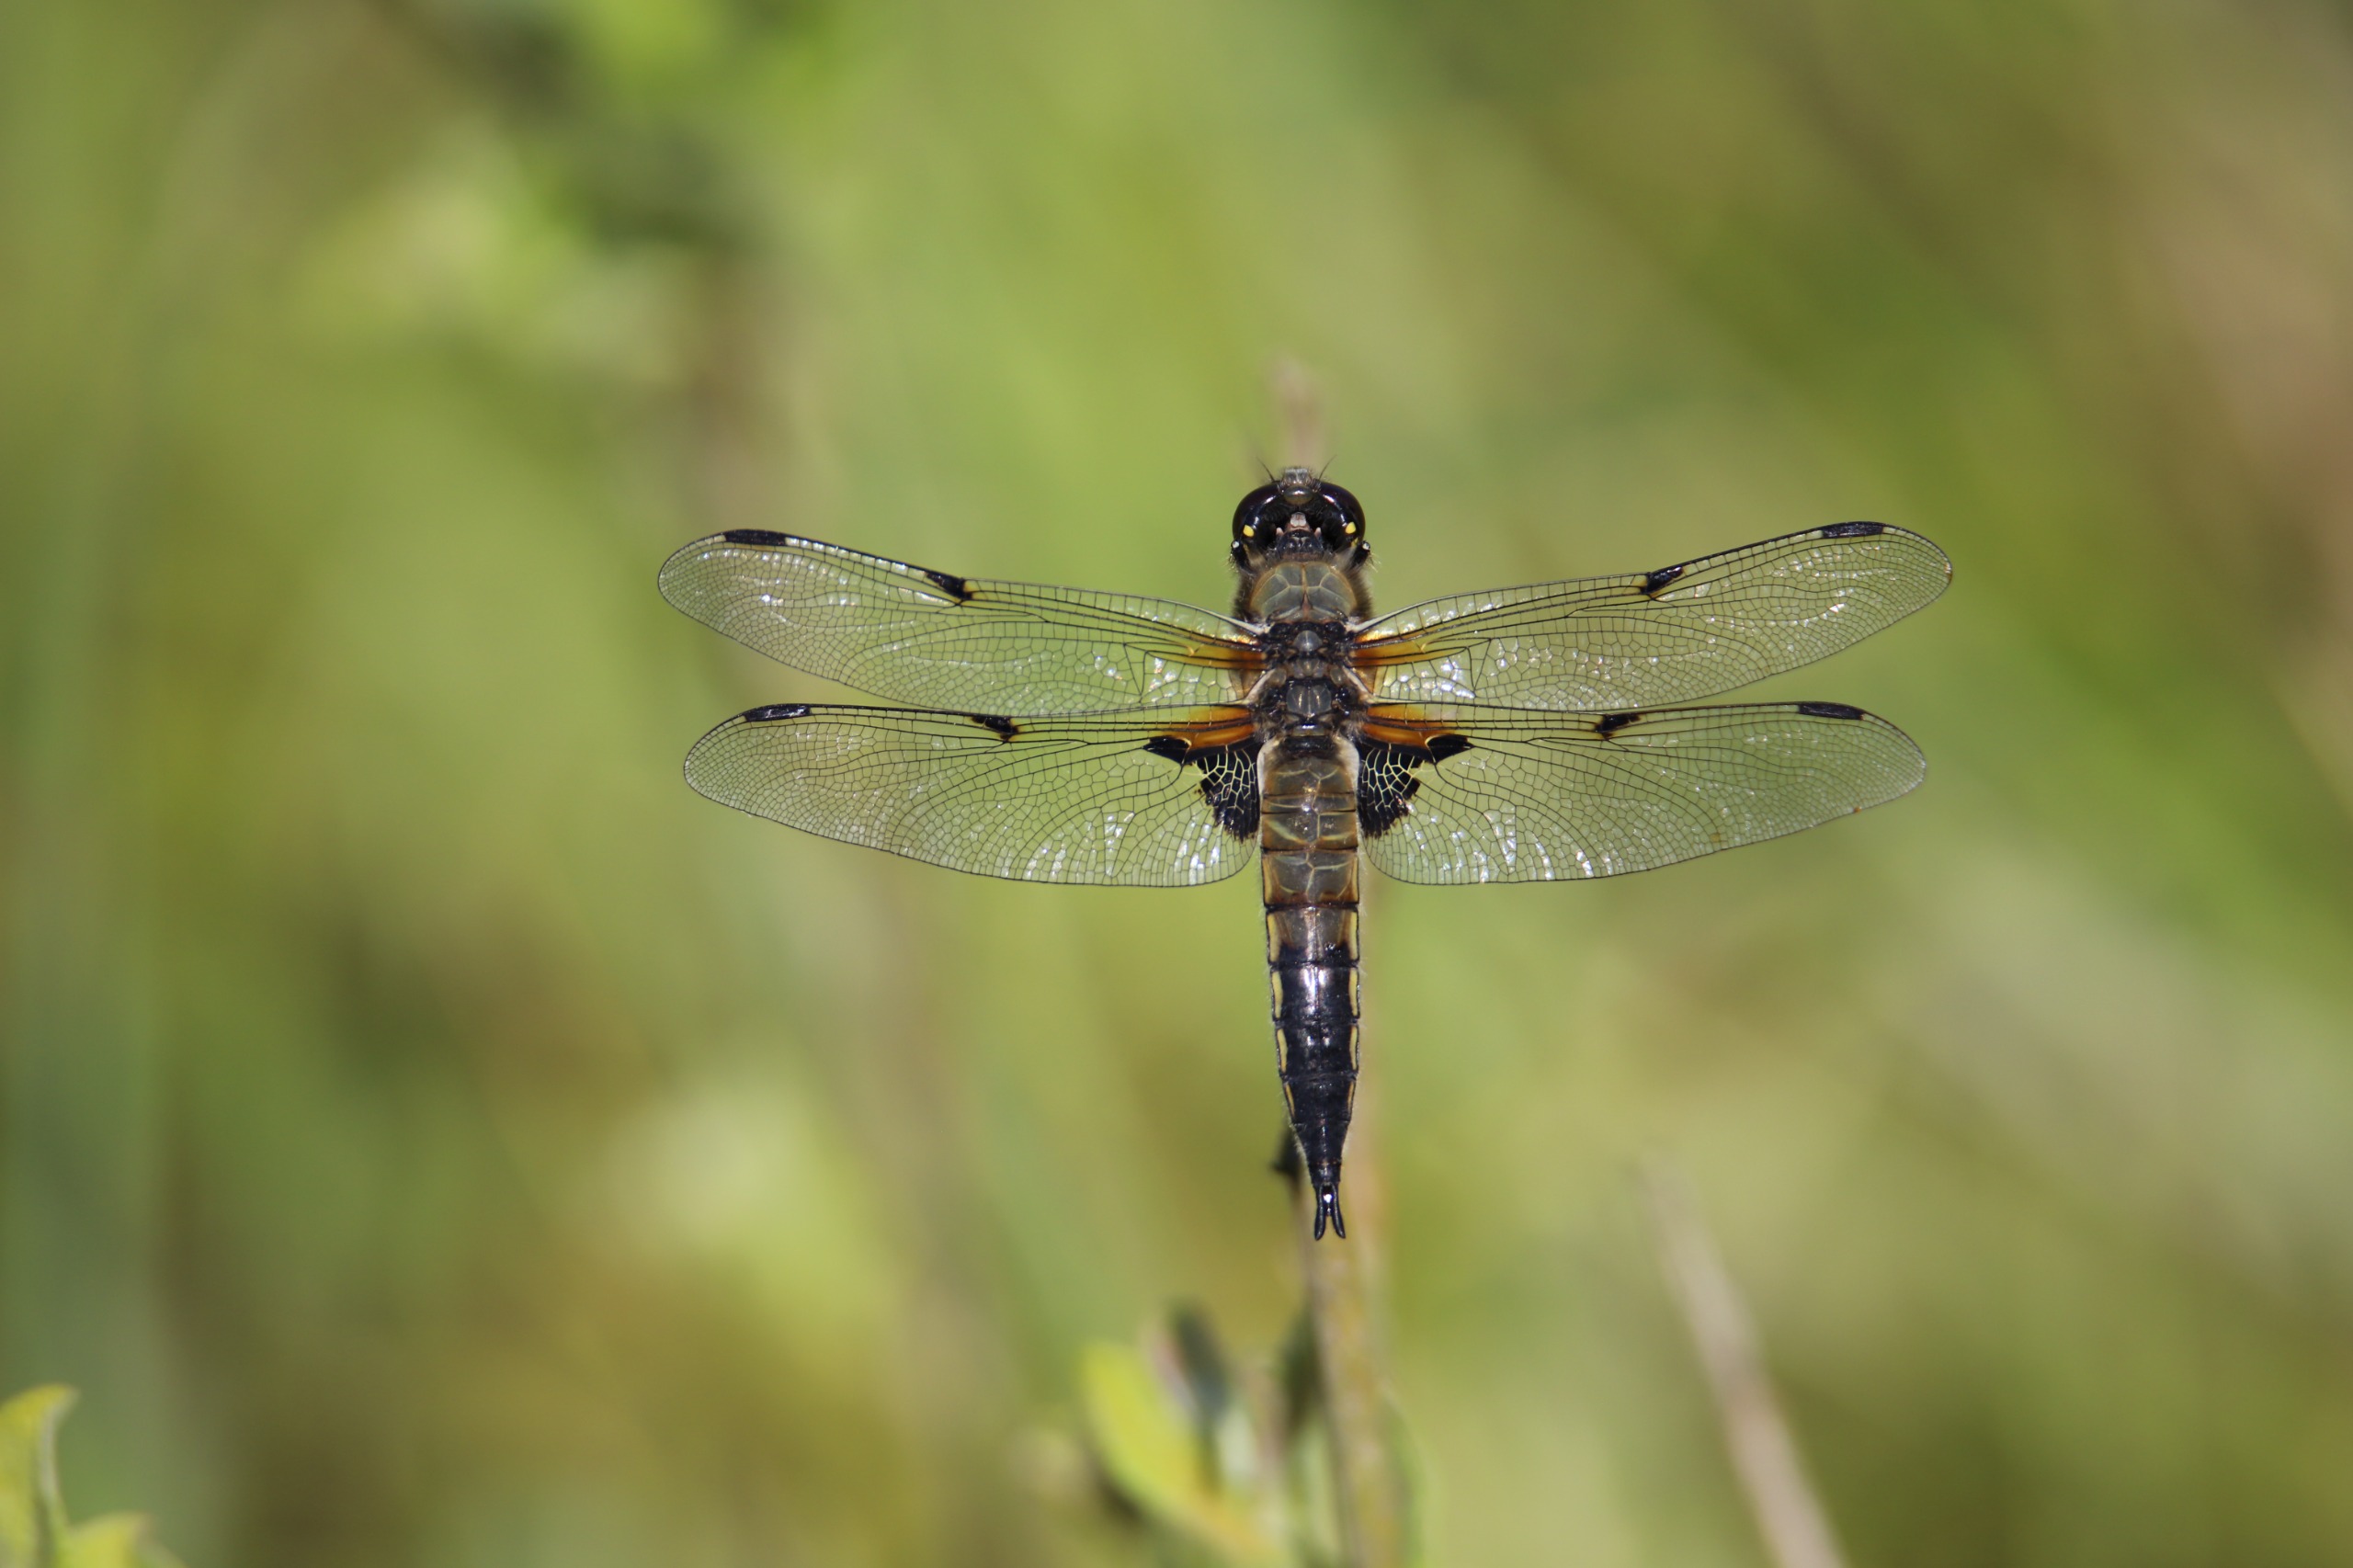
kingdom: Animalia
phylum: Arthropoda
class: Insecta
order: Odonata
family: Libellulidae
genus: Libellula
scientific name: Libellula quadrimaculata
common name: Fireplettet libel
